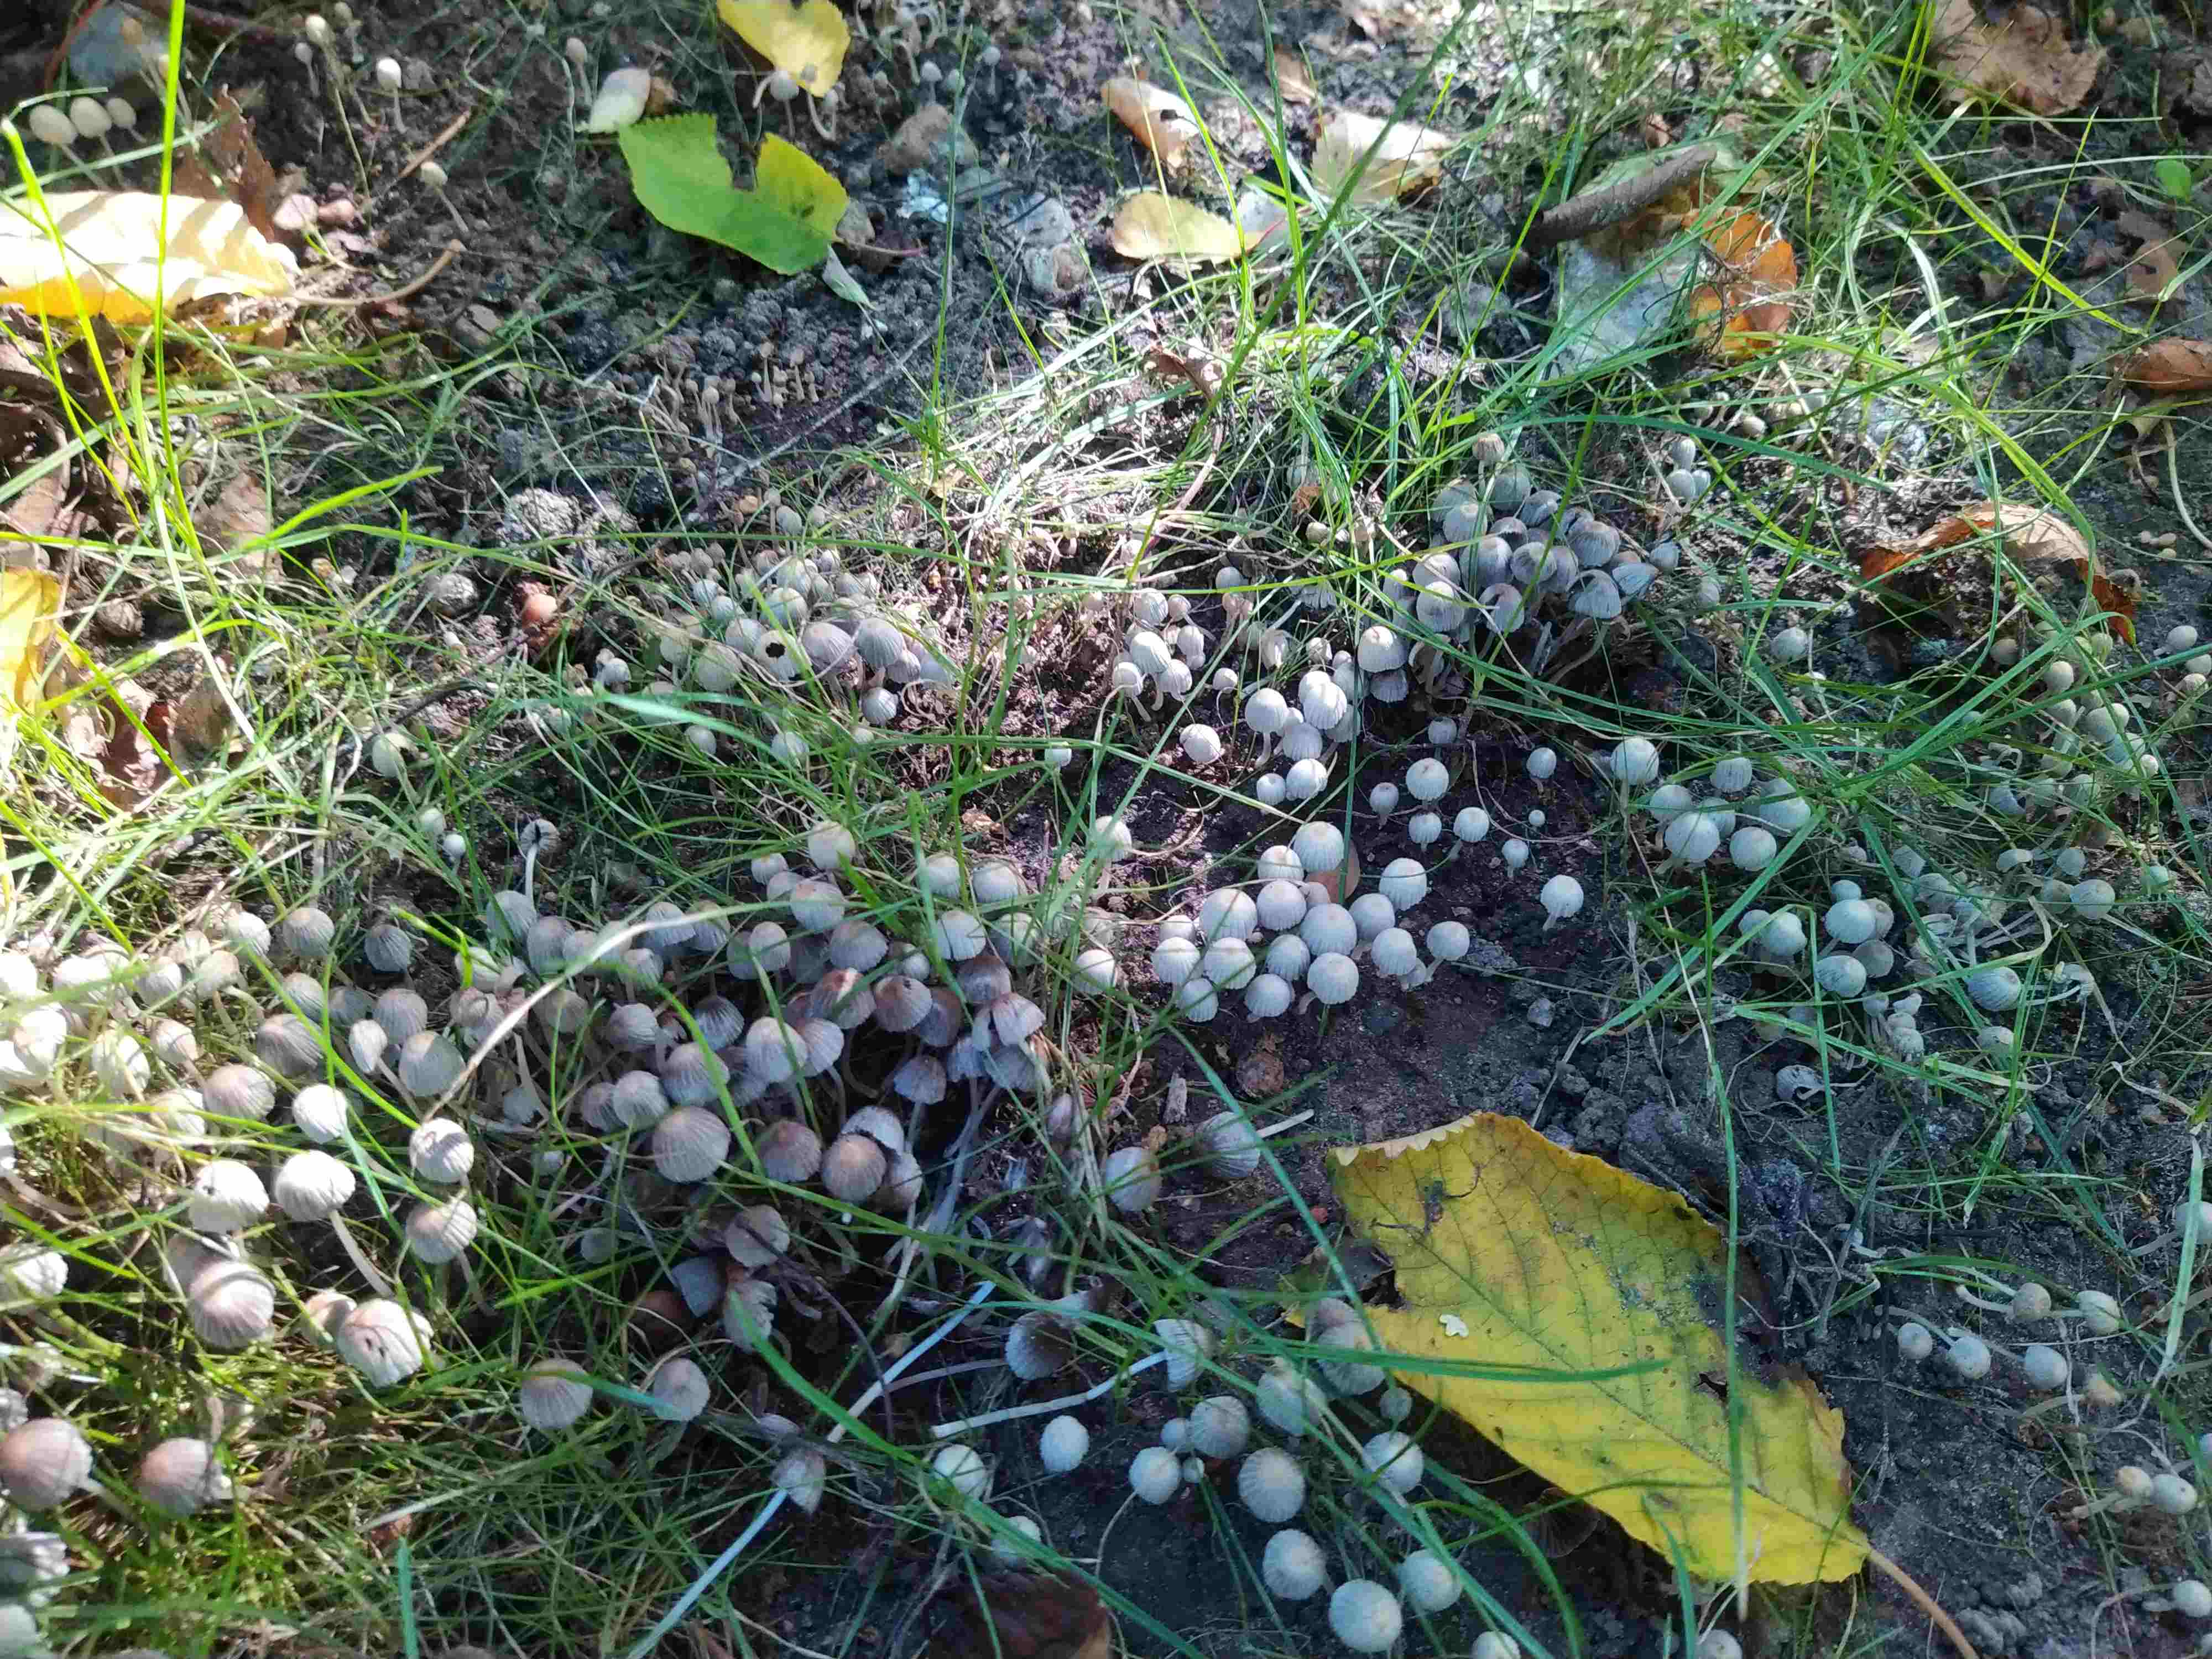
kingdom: Fungi
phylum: Basidiomycota
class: Agaricomycetes
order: Agaricales
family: Psathyrellaceae
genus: Coprinellus
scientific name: Coprinellus disseminatus
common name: bredsået blækhat
